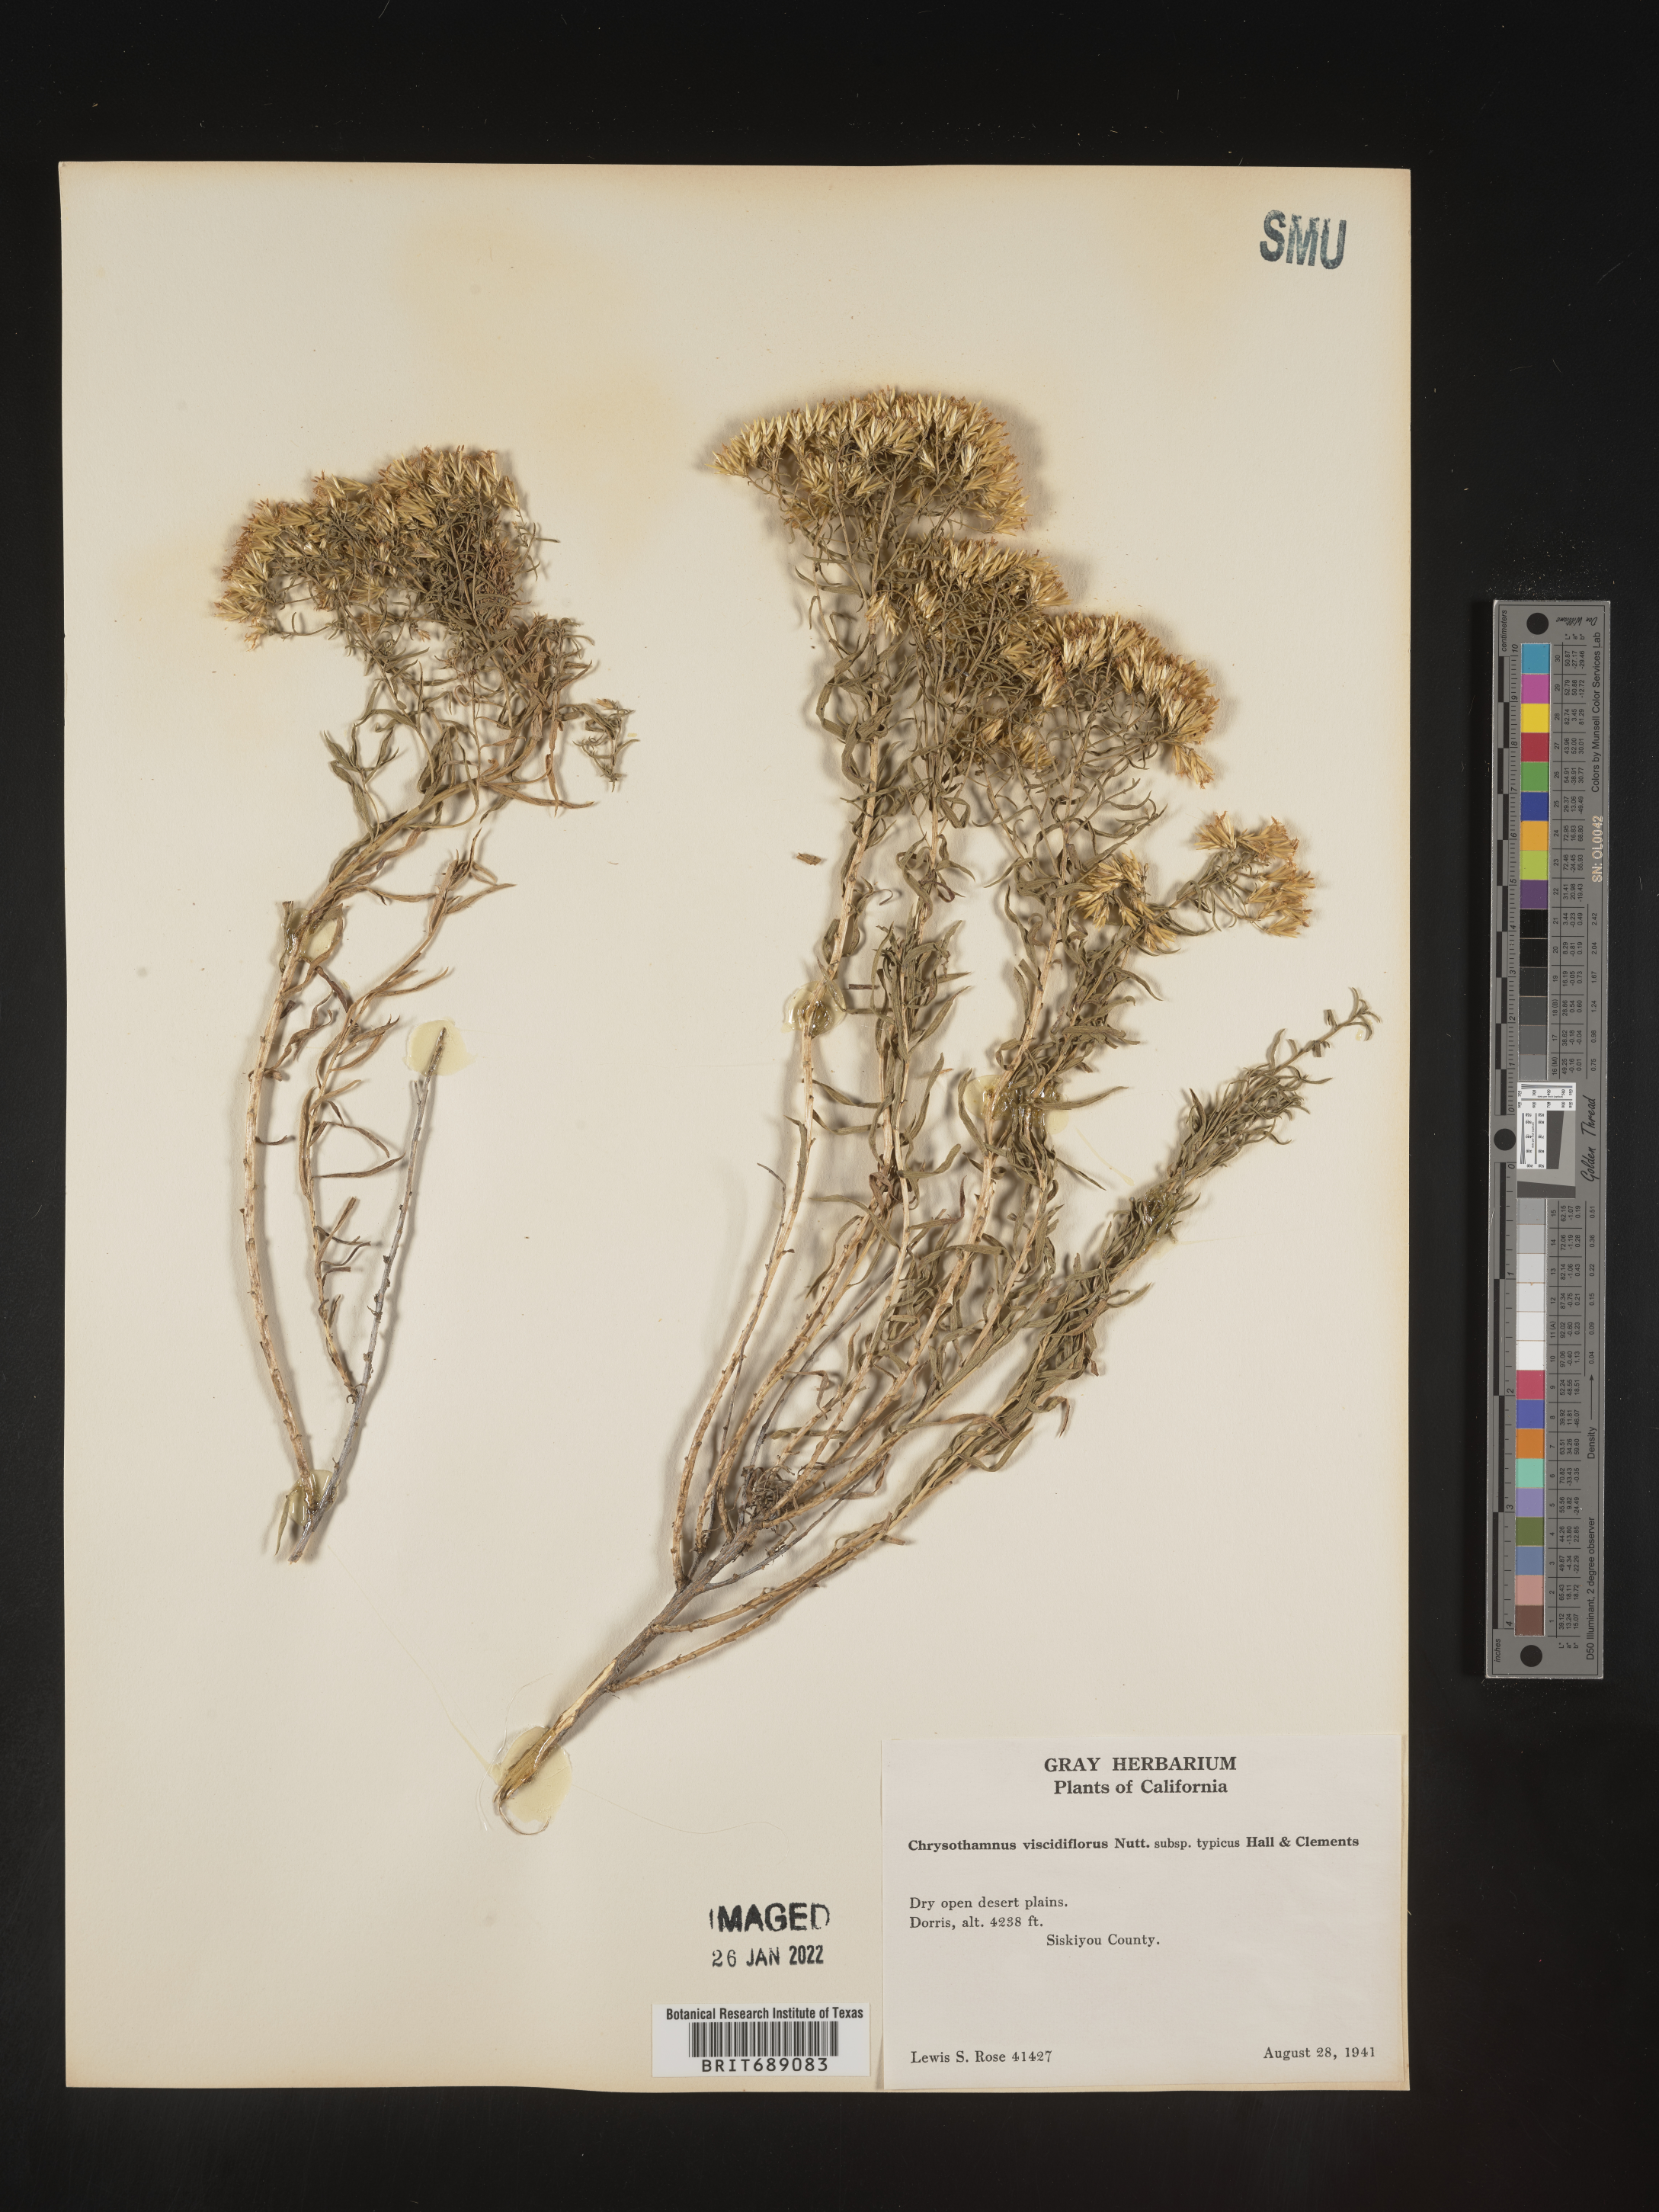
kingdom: Plantae
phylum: Tracheophyta
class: Magnoliopsida
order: Asterales
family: Asteraceae
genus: Chrysothamnus
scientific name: Chrysothamnus viscidiflorus
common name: Yellow rabbitbrush
